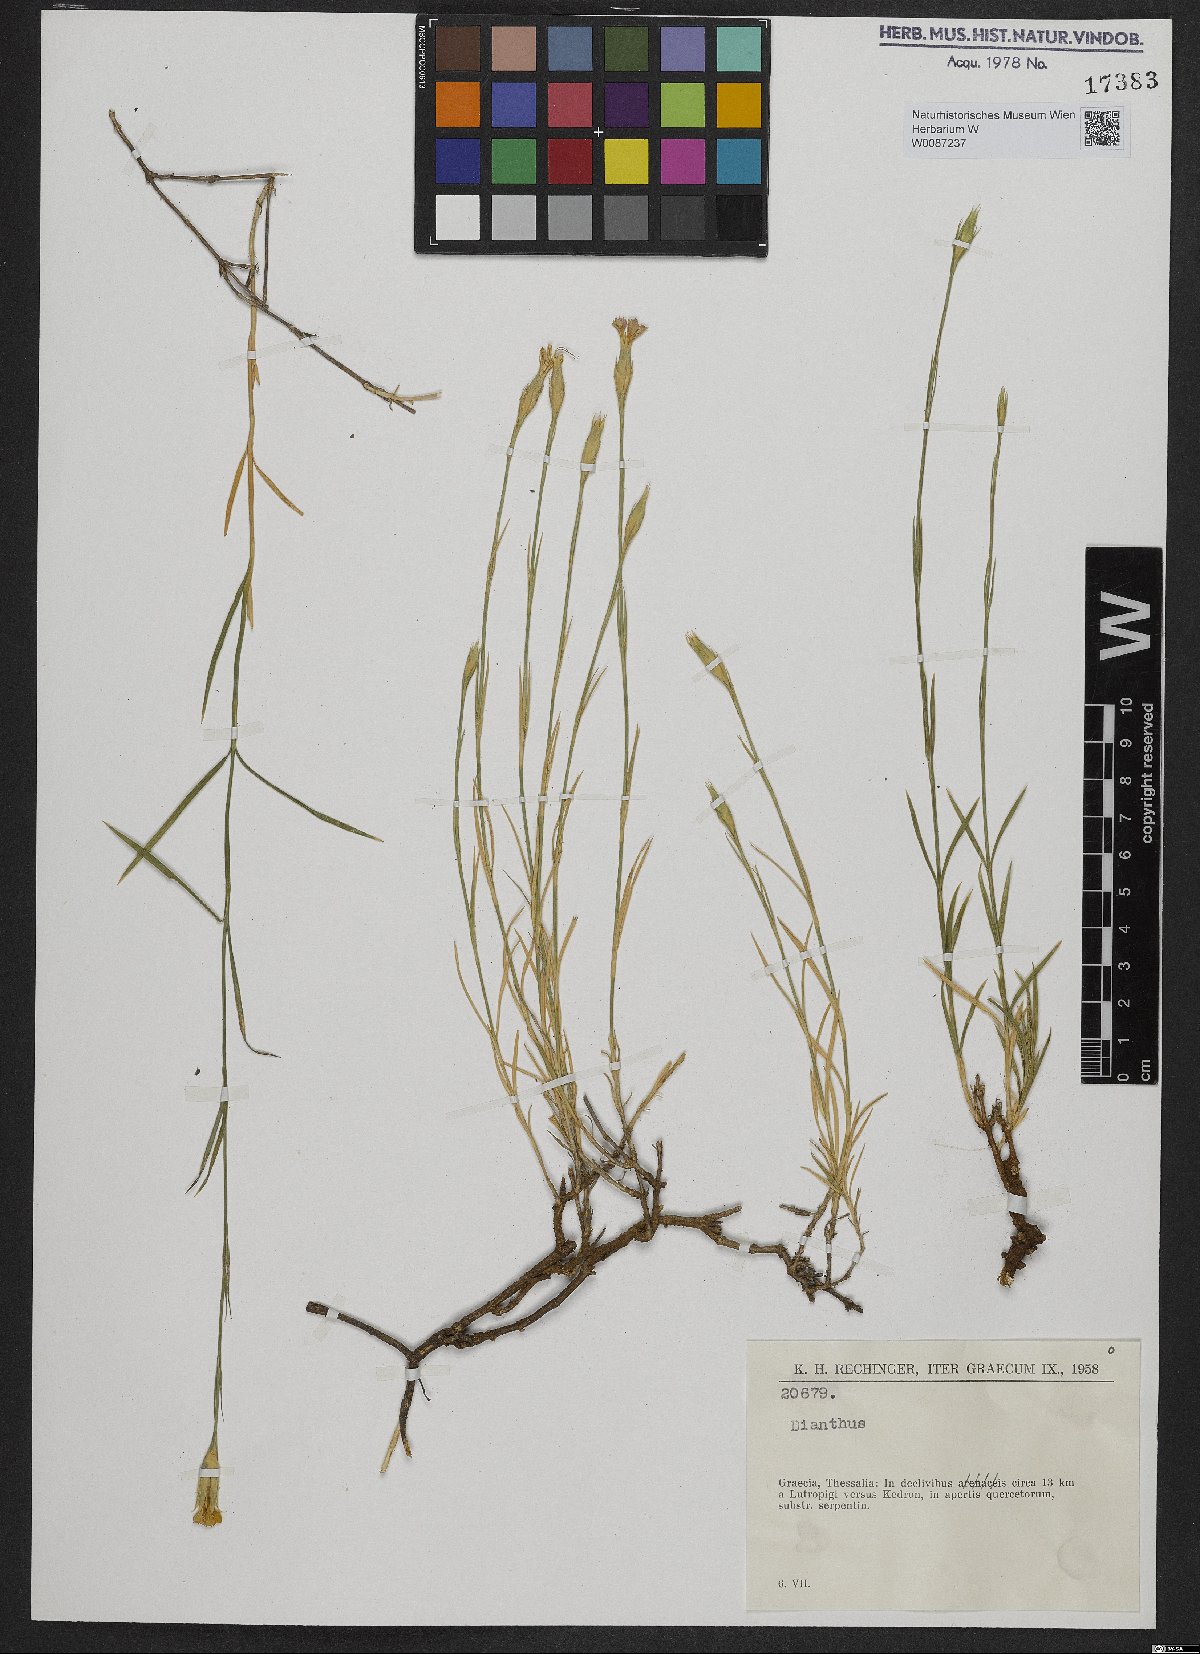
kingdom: Plantae
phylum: Tracheophyta
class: Magnoliopsida
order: Caryophyllales
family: Caryophyllaceae
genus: Dianthus
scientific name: Dianthus
